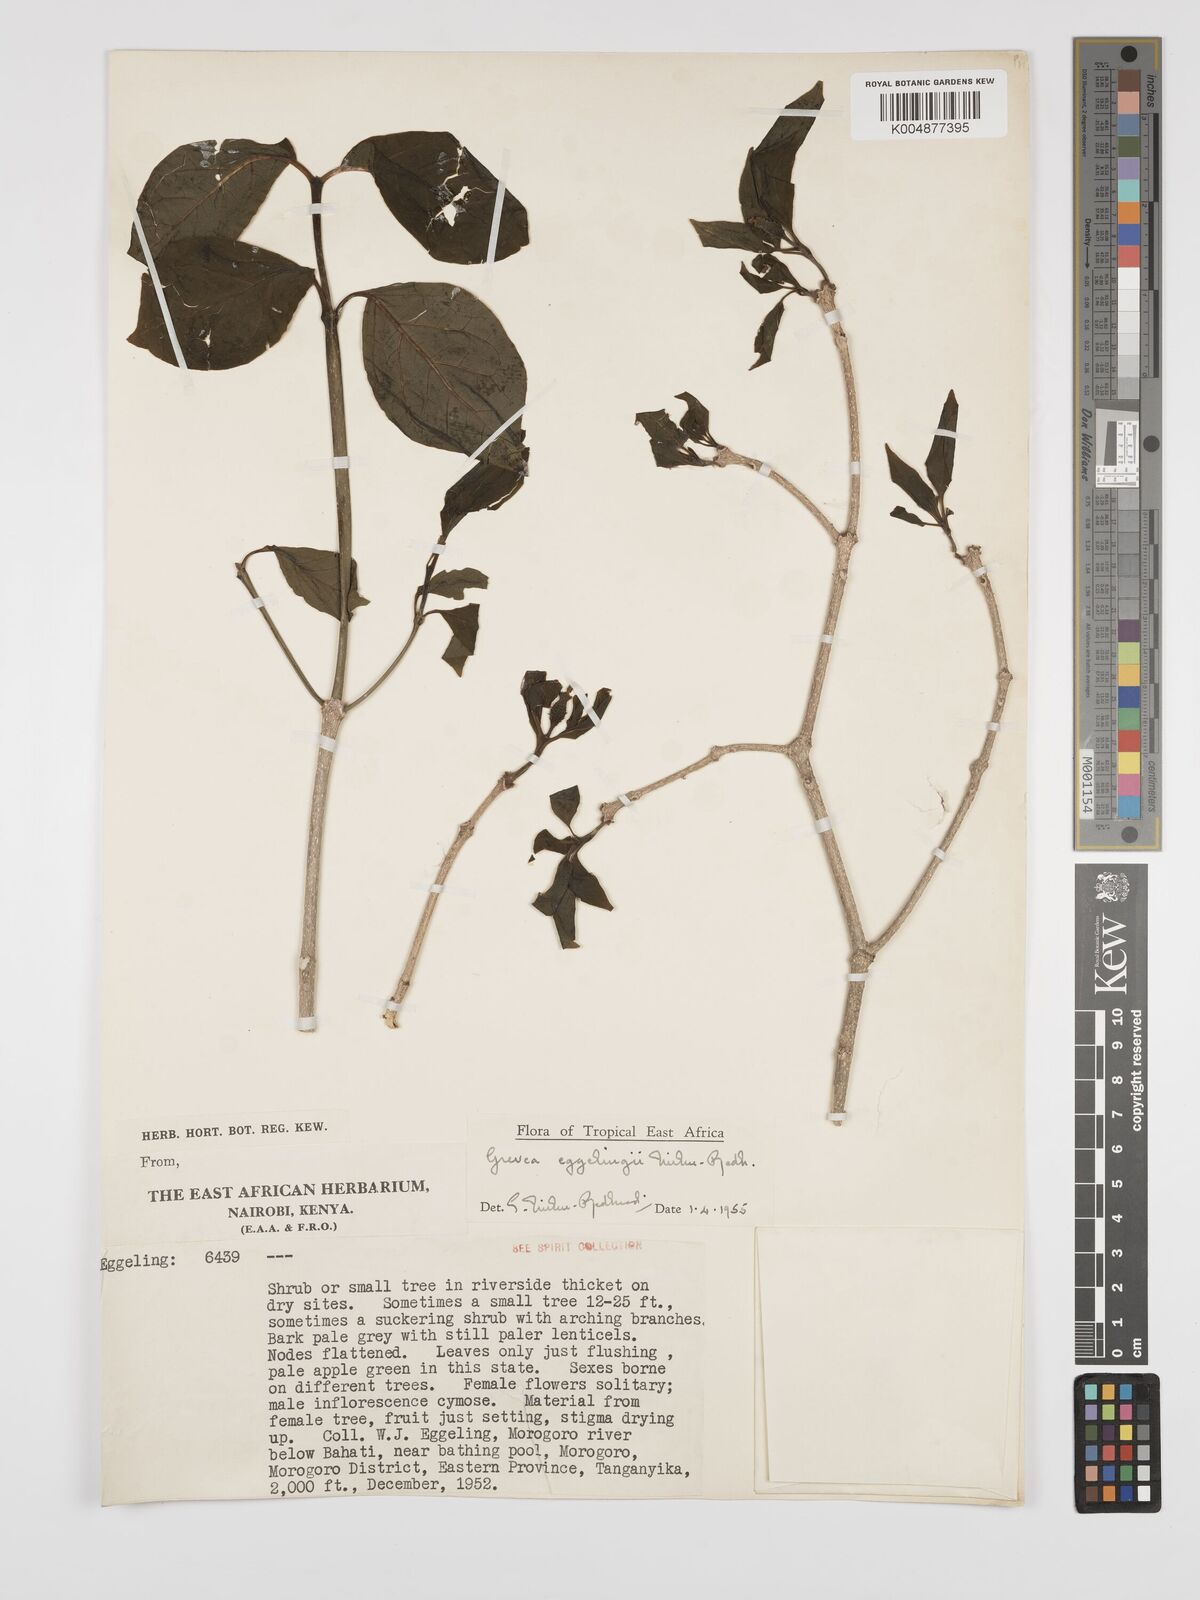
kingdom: Plantae
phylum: Tracheophyta
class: Magnoliopsida
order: Solanales
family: Montiniaceae
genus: Grevea
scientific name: Grevea eggelingii
